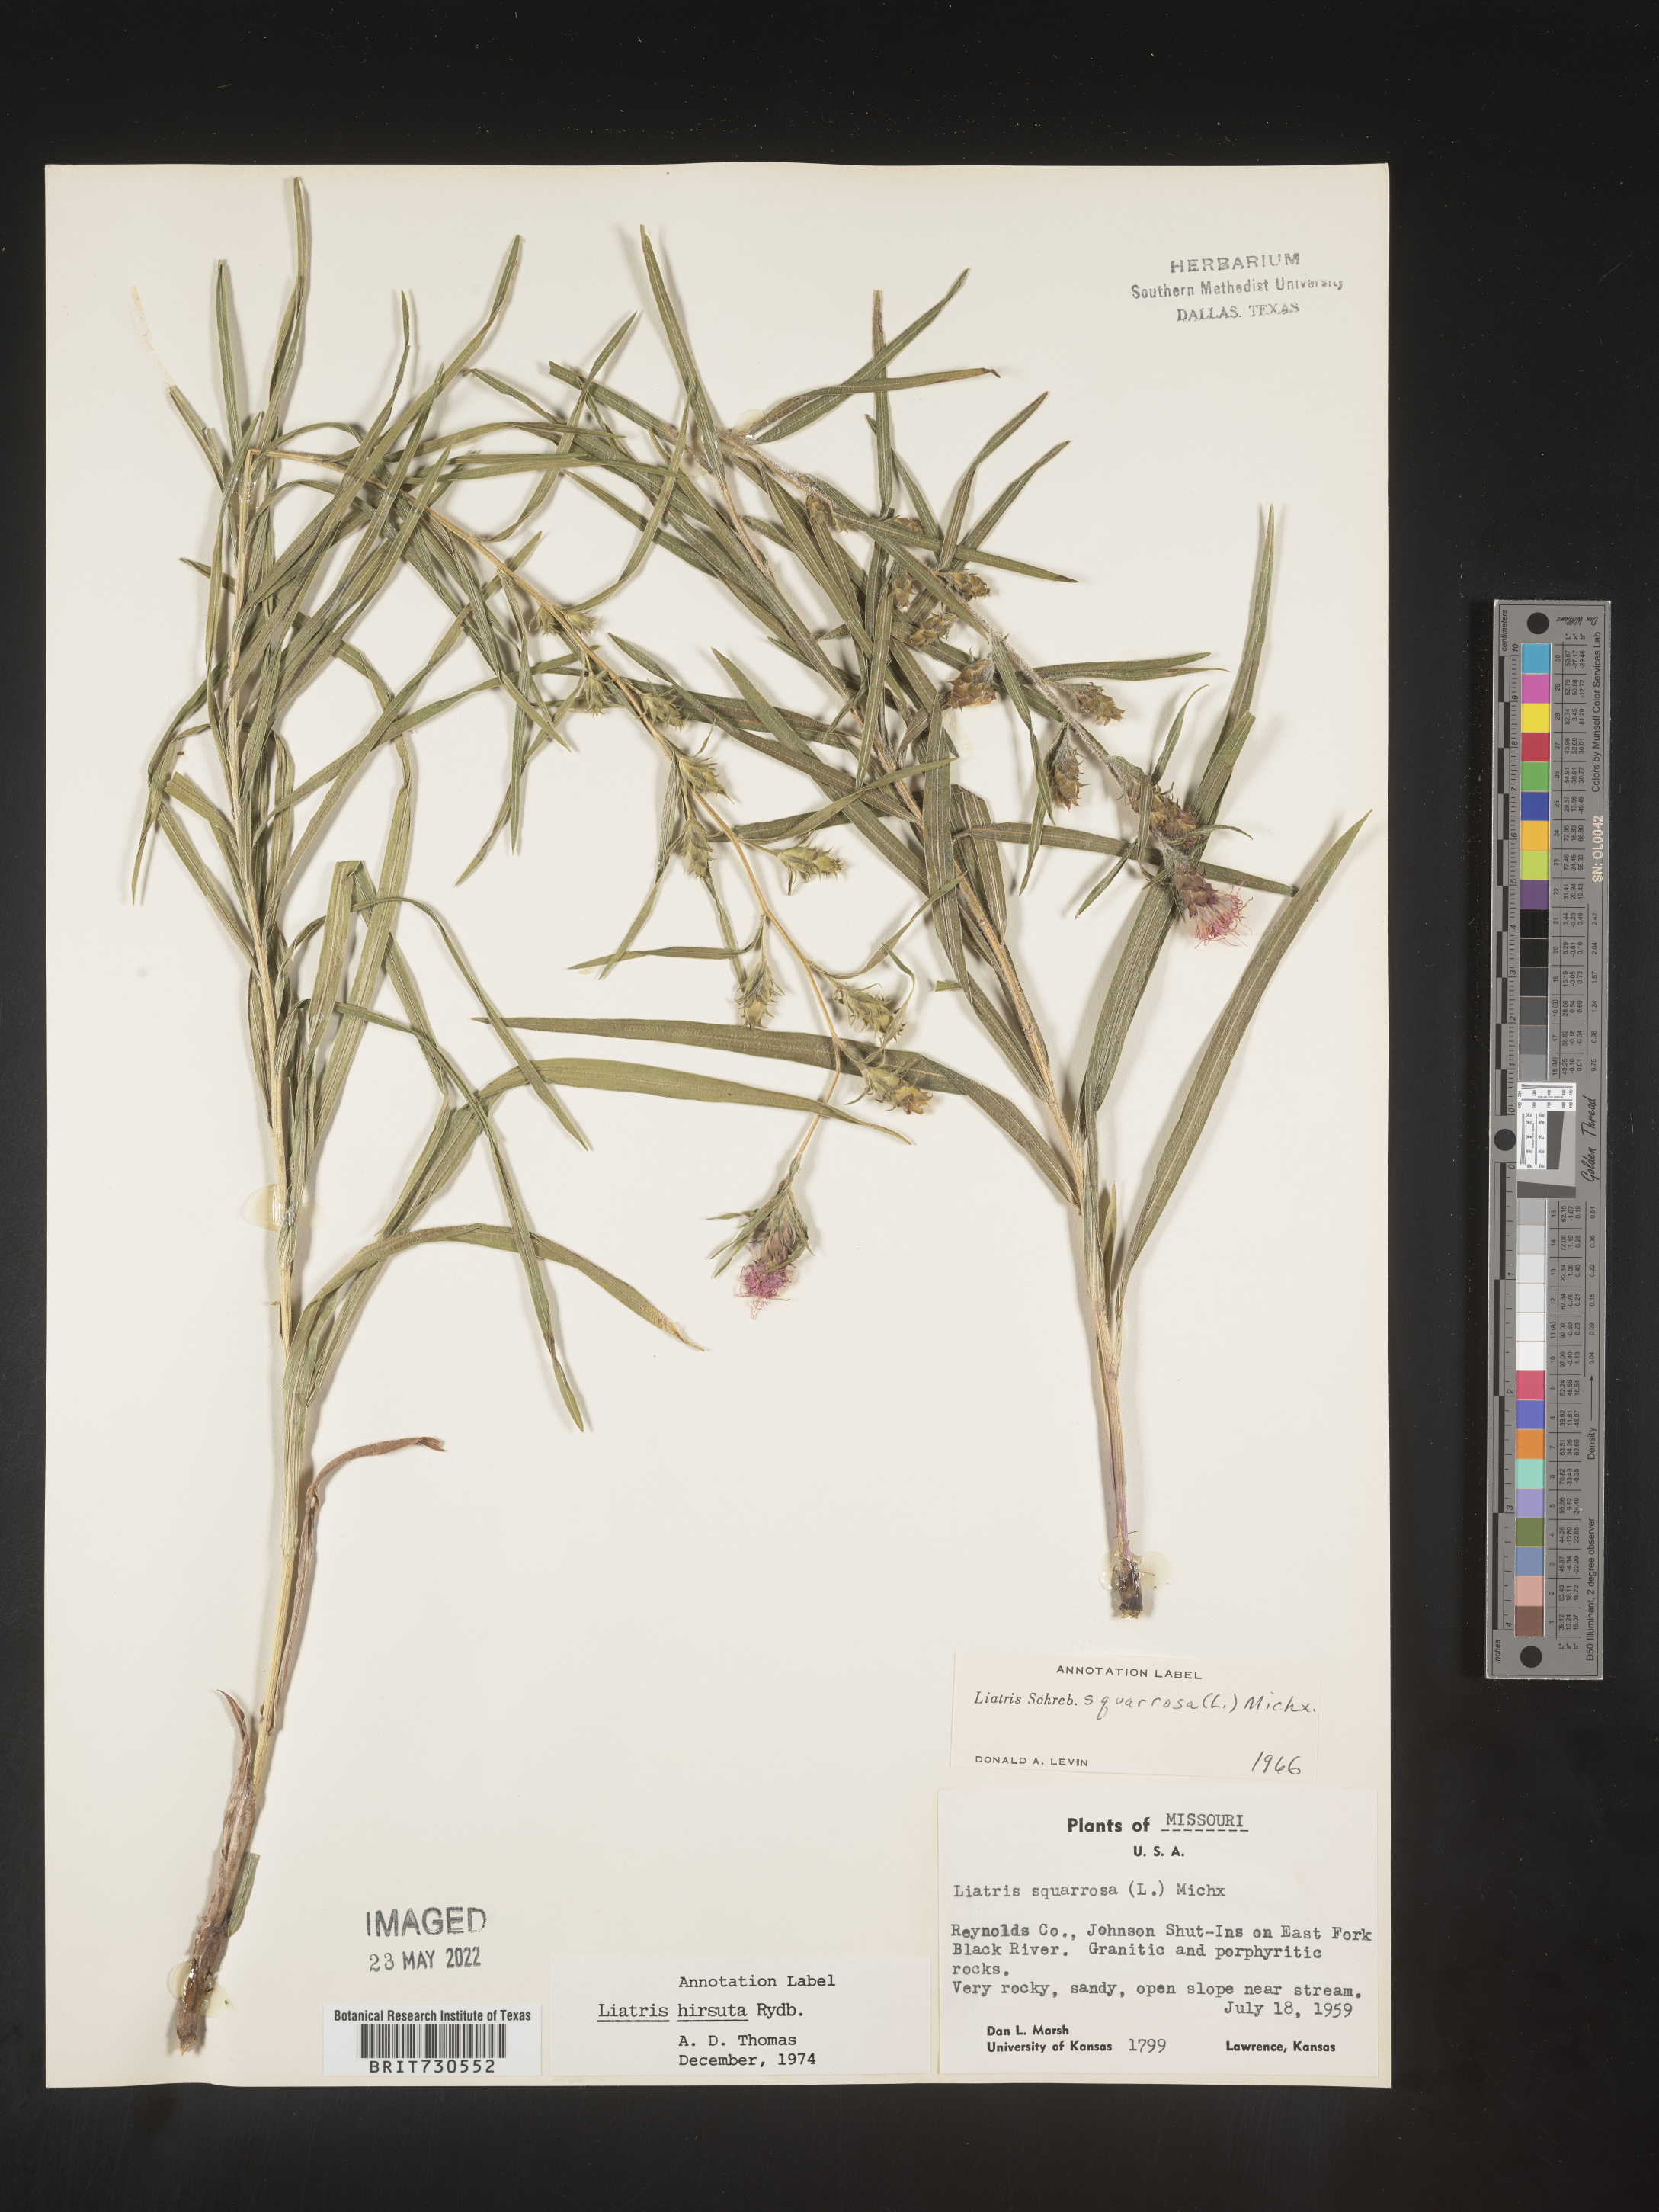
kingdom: Plantae
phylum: Tracheophyta
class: Magnoliopsida
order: Asterales
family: Asteraceae
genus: Liatris
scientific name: Liatris hirsuta
